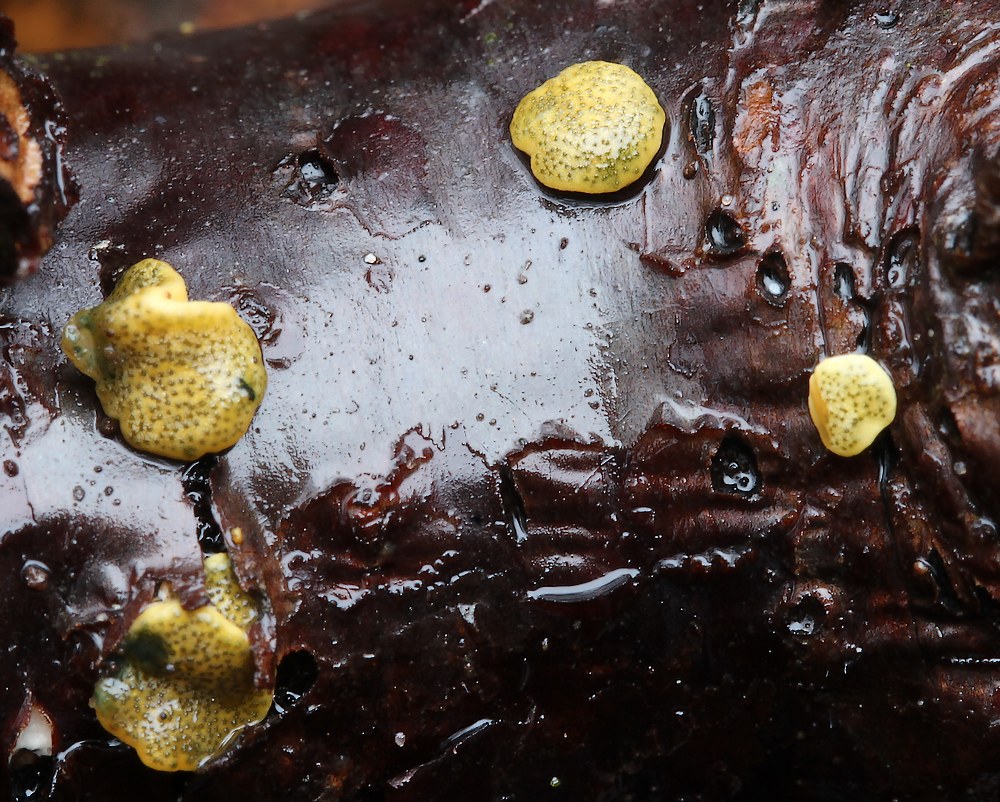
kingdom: Fungi
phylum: Ascomycota
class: Sordariomycetes
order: Hypocreales
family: Hypocreaceae
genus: Trichoderma
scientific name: Trichoderma aureoviride
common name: æggegul kødkerne
